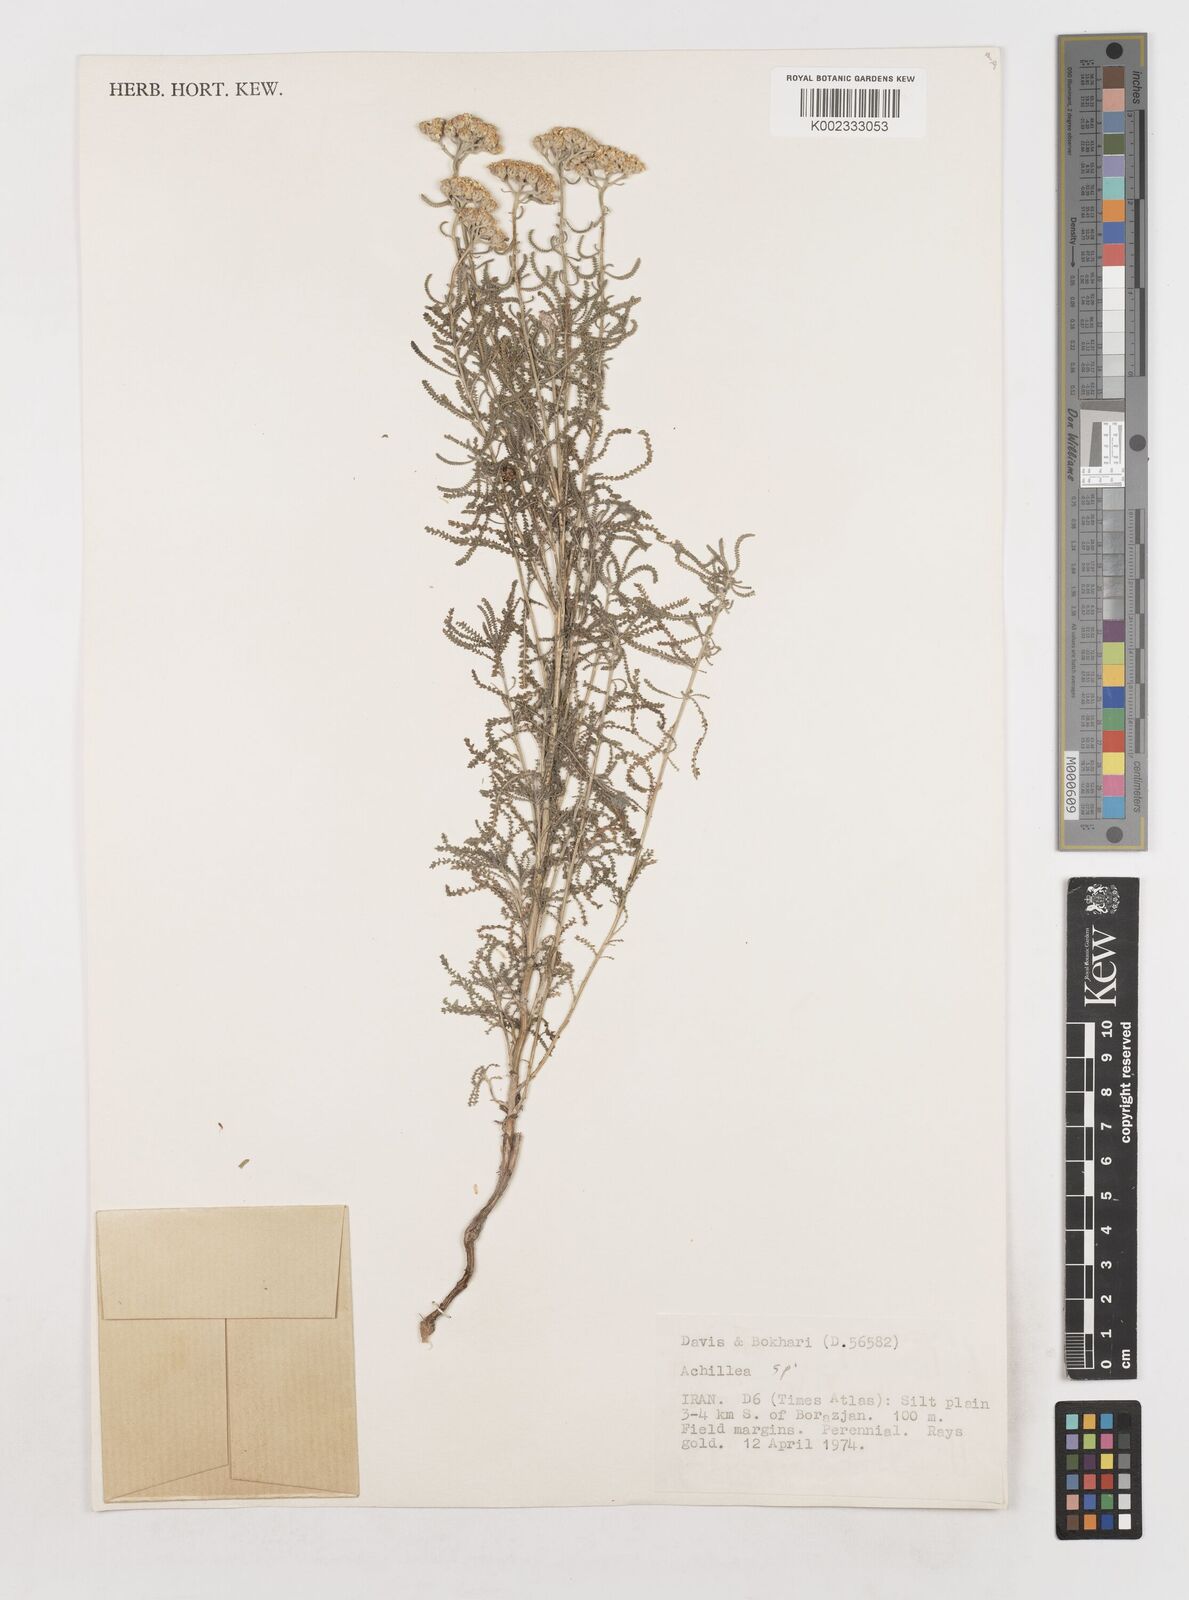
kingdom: Plantae
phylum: Tracheophyta
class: Magnoliopsida
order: Asterales
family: Asteraceae
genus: Achillea
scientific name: Achillea
